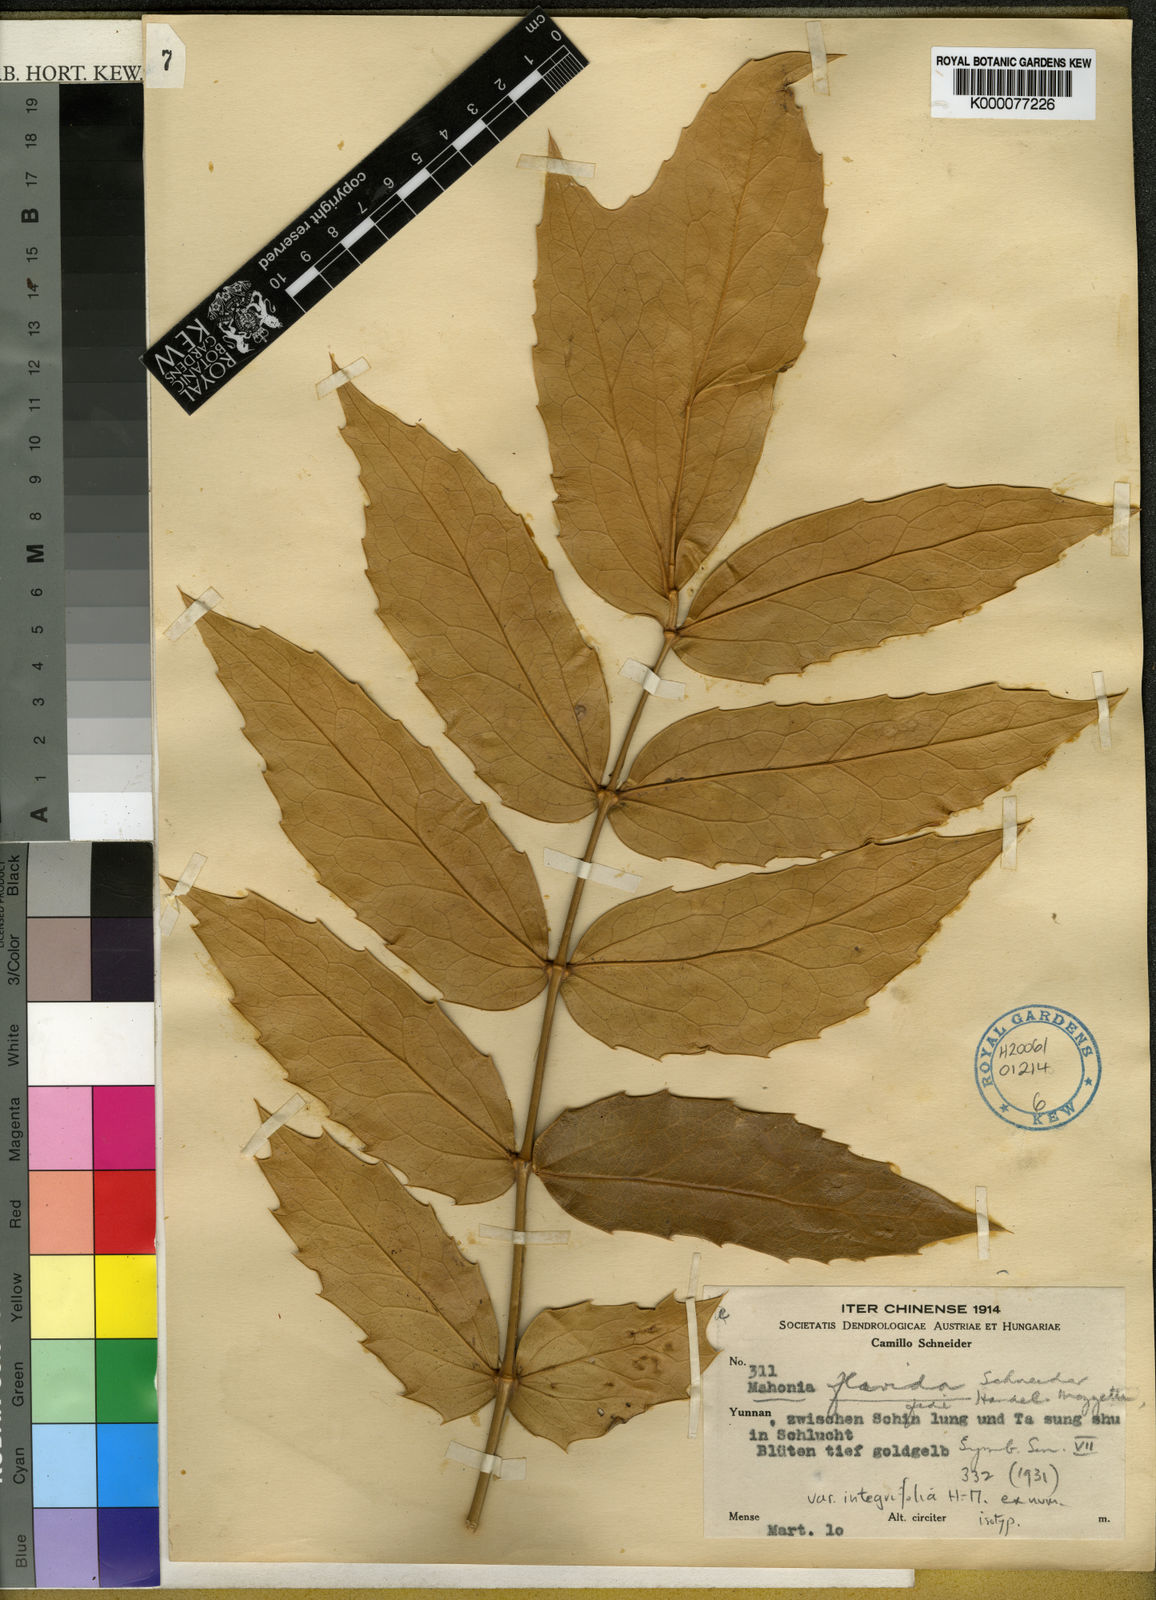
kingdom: Plantae
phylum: Tracheophyta
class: Magnoliopsida
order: Ranunculales
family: Berberidaceae
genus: Mahonia
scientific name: Mahonia napaulensis
